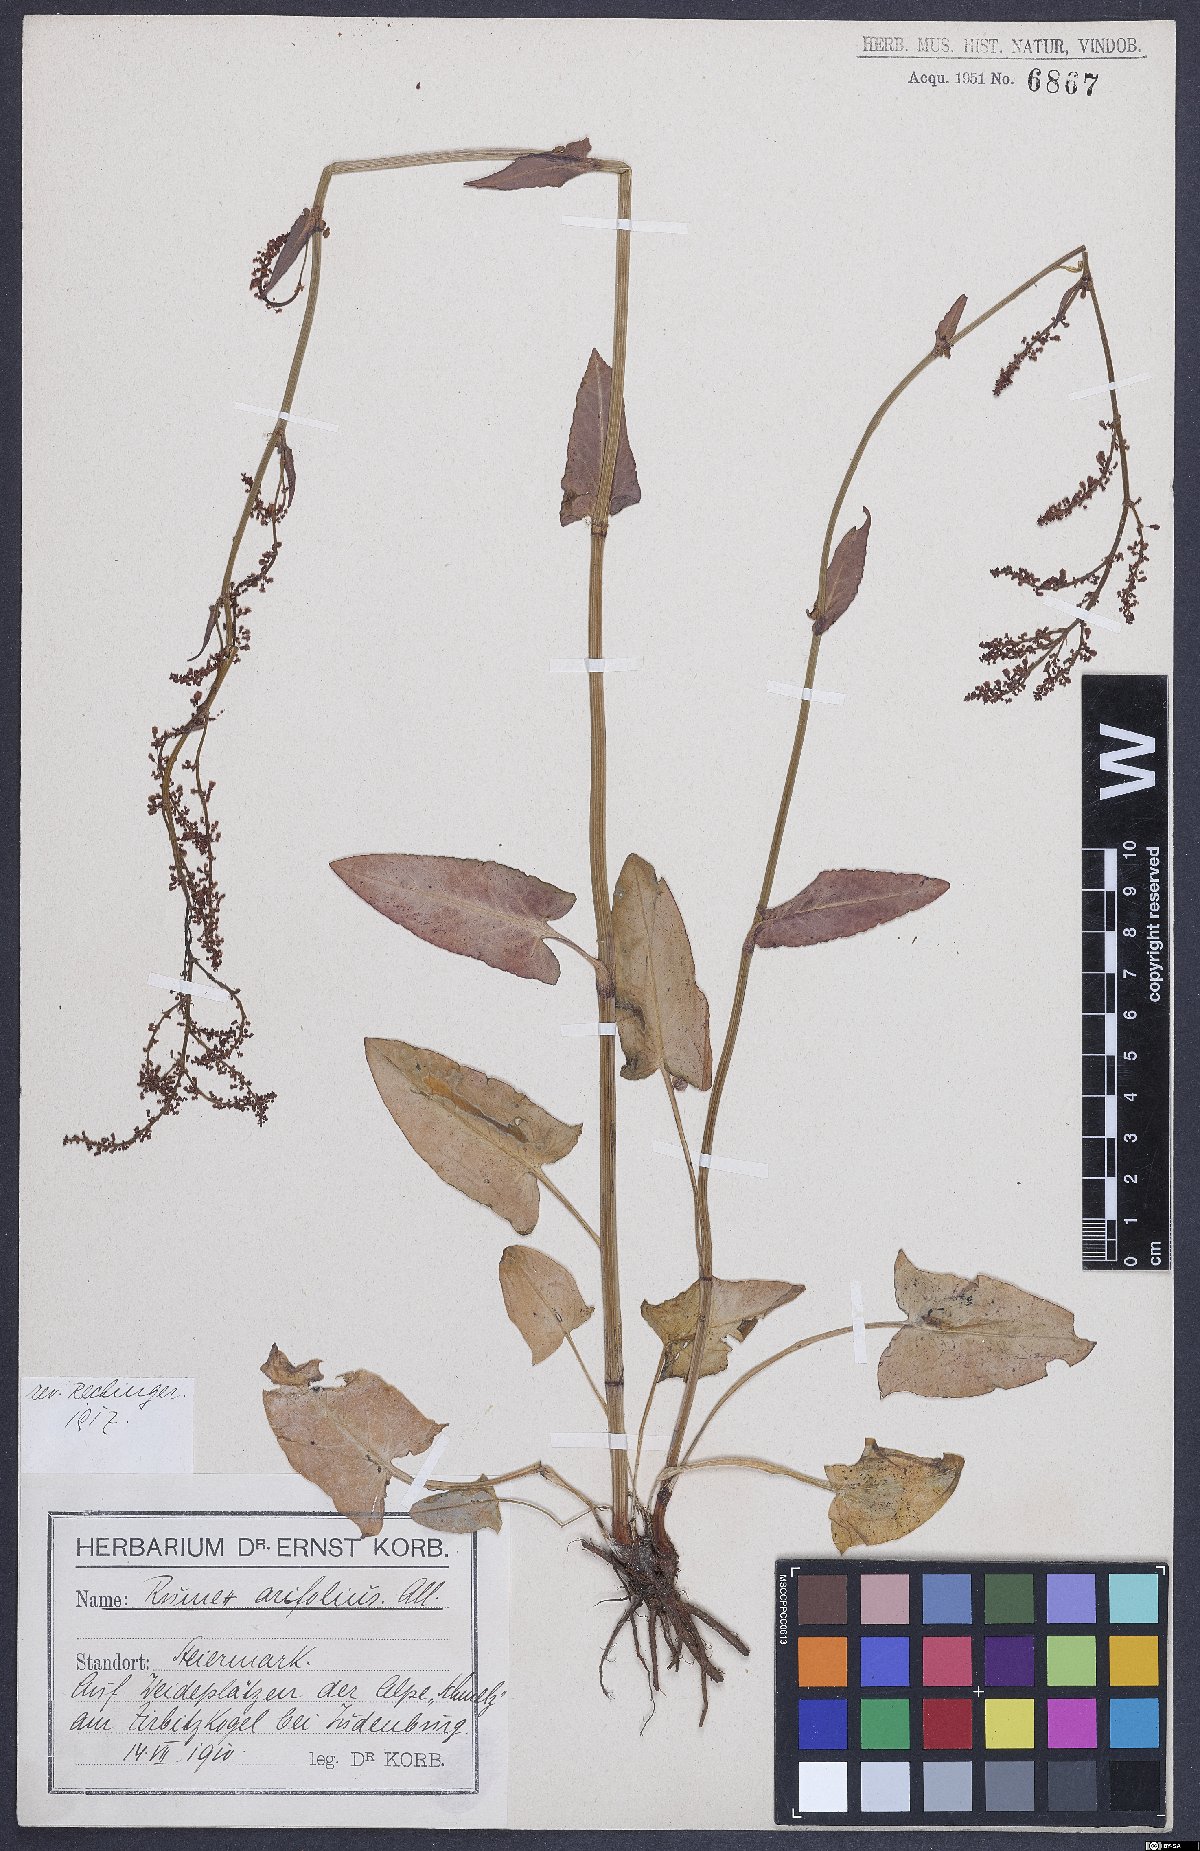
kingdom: Plantae
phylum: Tracheophyta
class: Magnoliopsida
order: Caryophyllales
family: Polygonaceae
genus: Rumex
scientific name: Rumex arifolius
